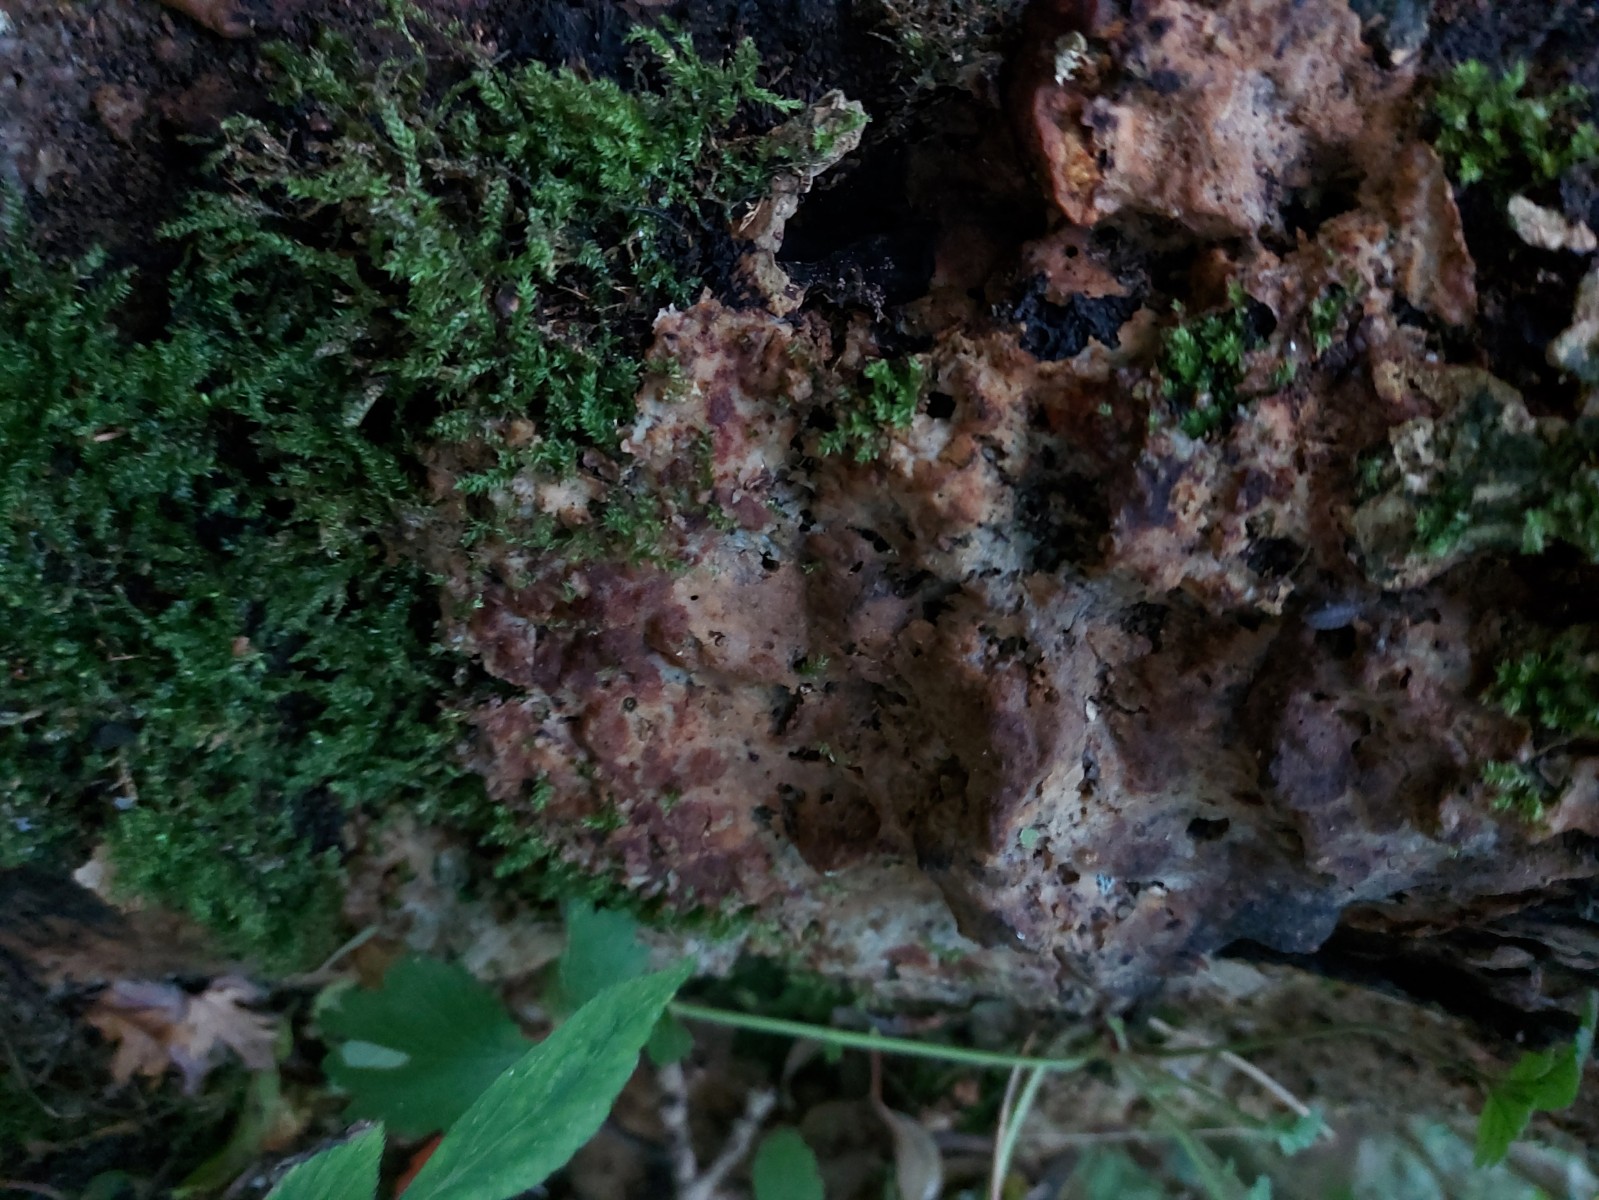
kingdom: Protozoa
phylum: Mycetozoa
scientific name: Mycetozoa
